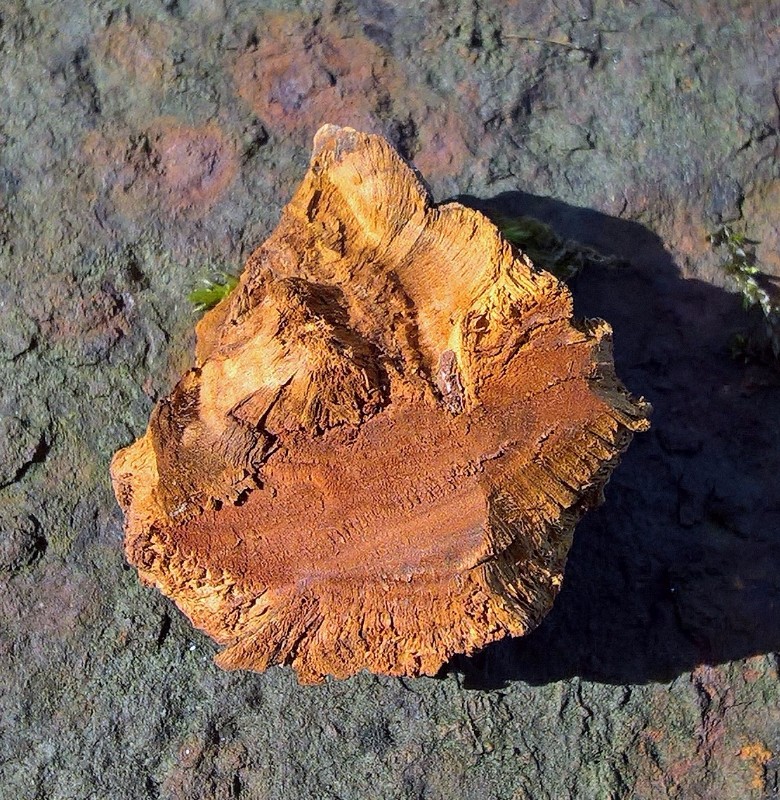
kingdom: Fungi
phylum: Basidiomycota
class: Agaricomycetes
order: Hymenochaetales
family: Hymenochaetaceae
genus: Xanthoporia
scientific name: Xanthoporia radiata
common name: elle-spejlporesvamp
